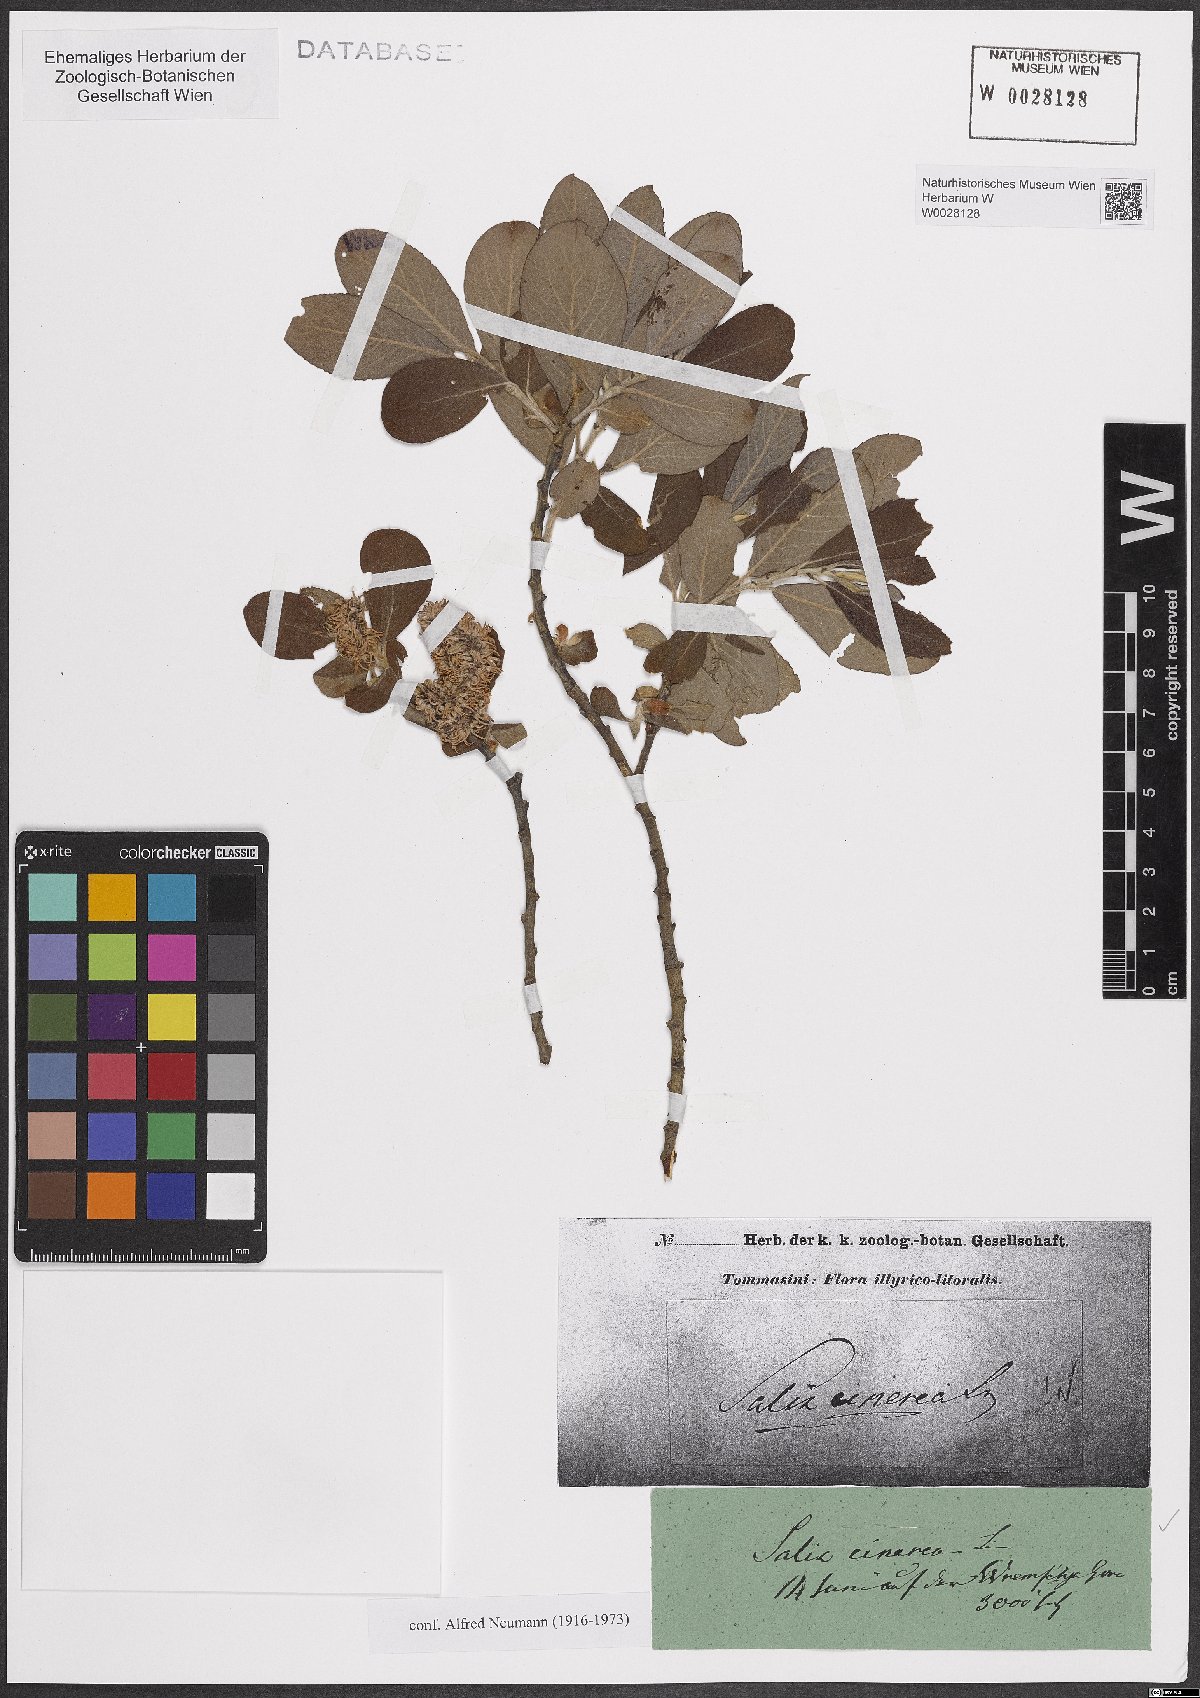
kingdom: Plantae
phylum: Tracheophyta
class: Magnoliopsida
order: Malpighiales
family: Salicaceae
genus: Salix
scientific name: Salix cinerea
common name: Common sallow
